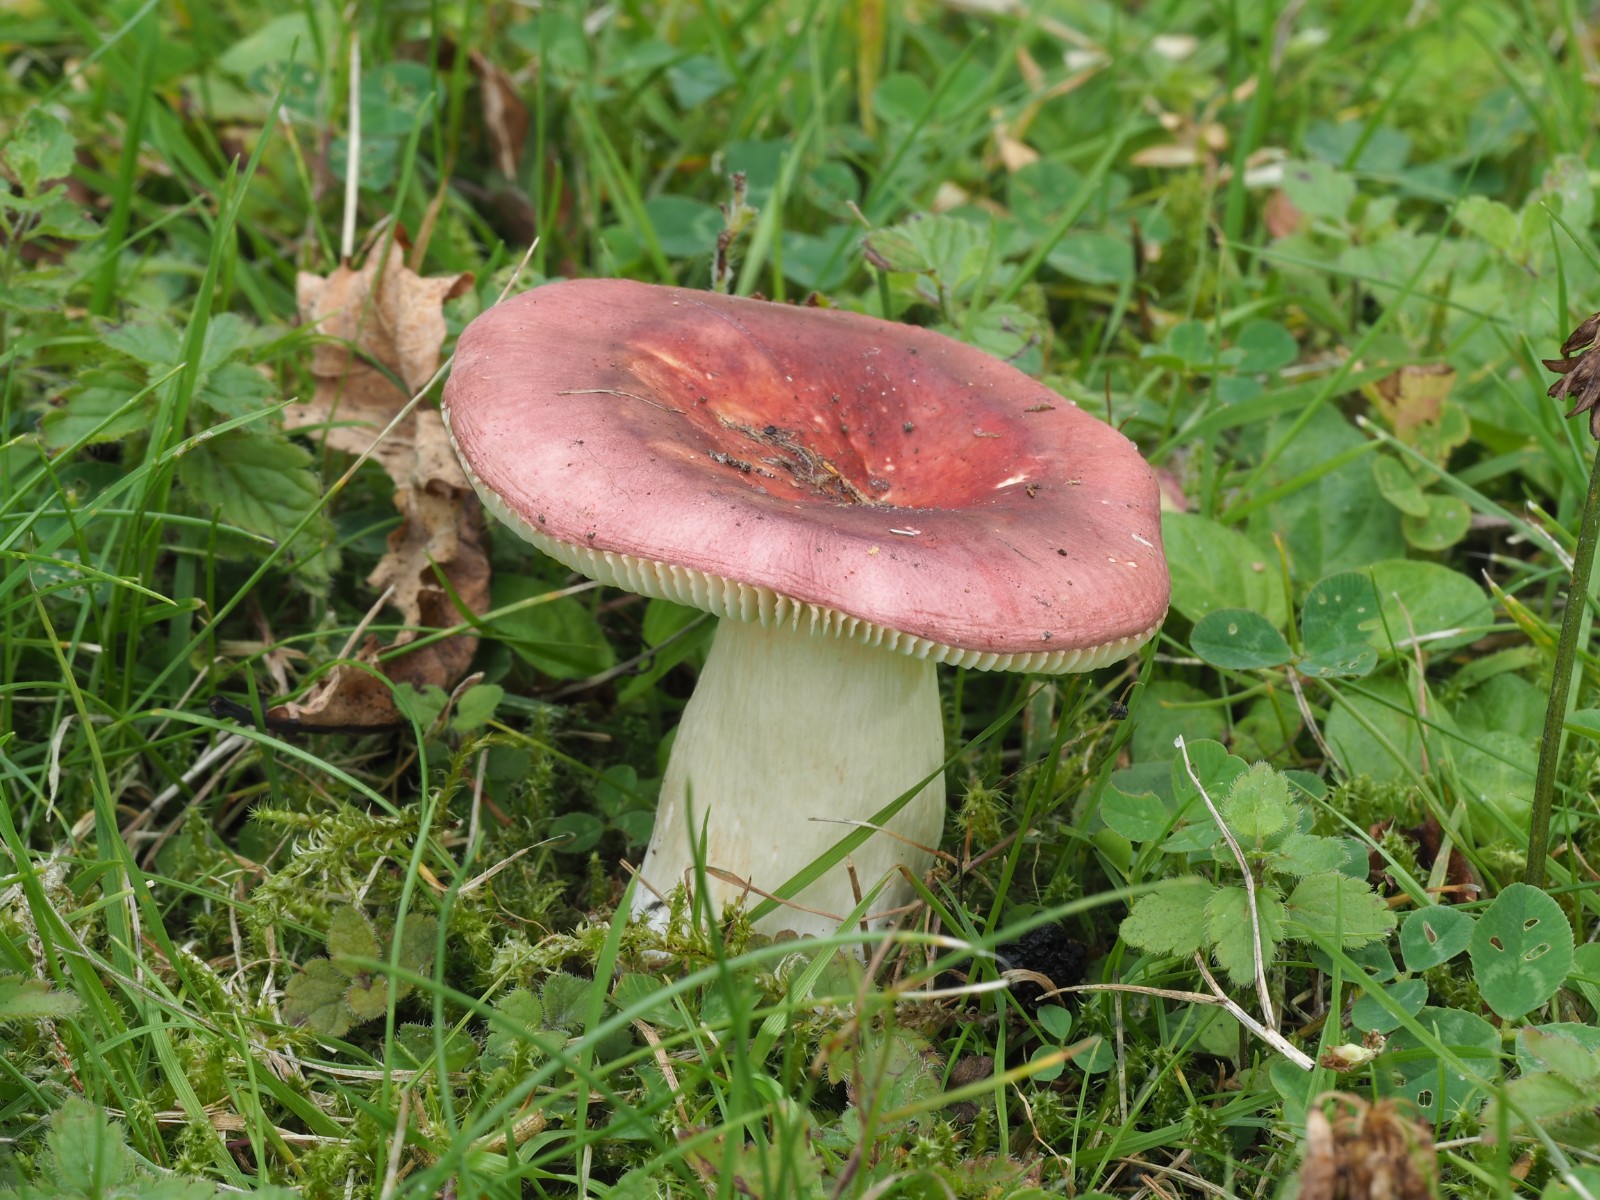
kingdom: Fungi
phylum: Basidiomycota
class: Agaricomycetes
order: Russulales
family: Russulaceae
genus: Russula
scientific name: Russula
